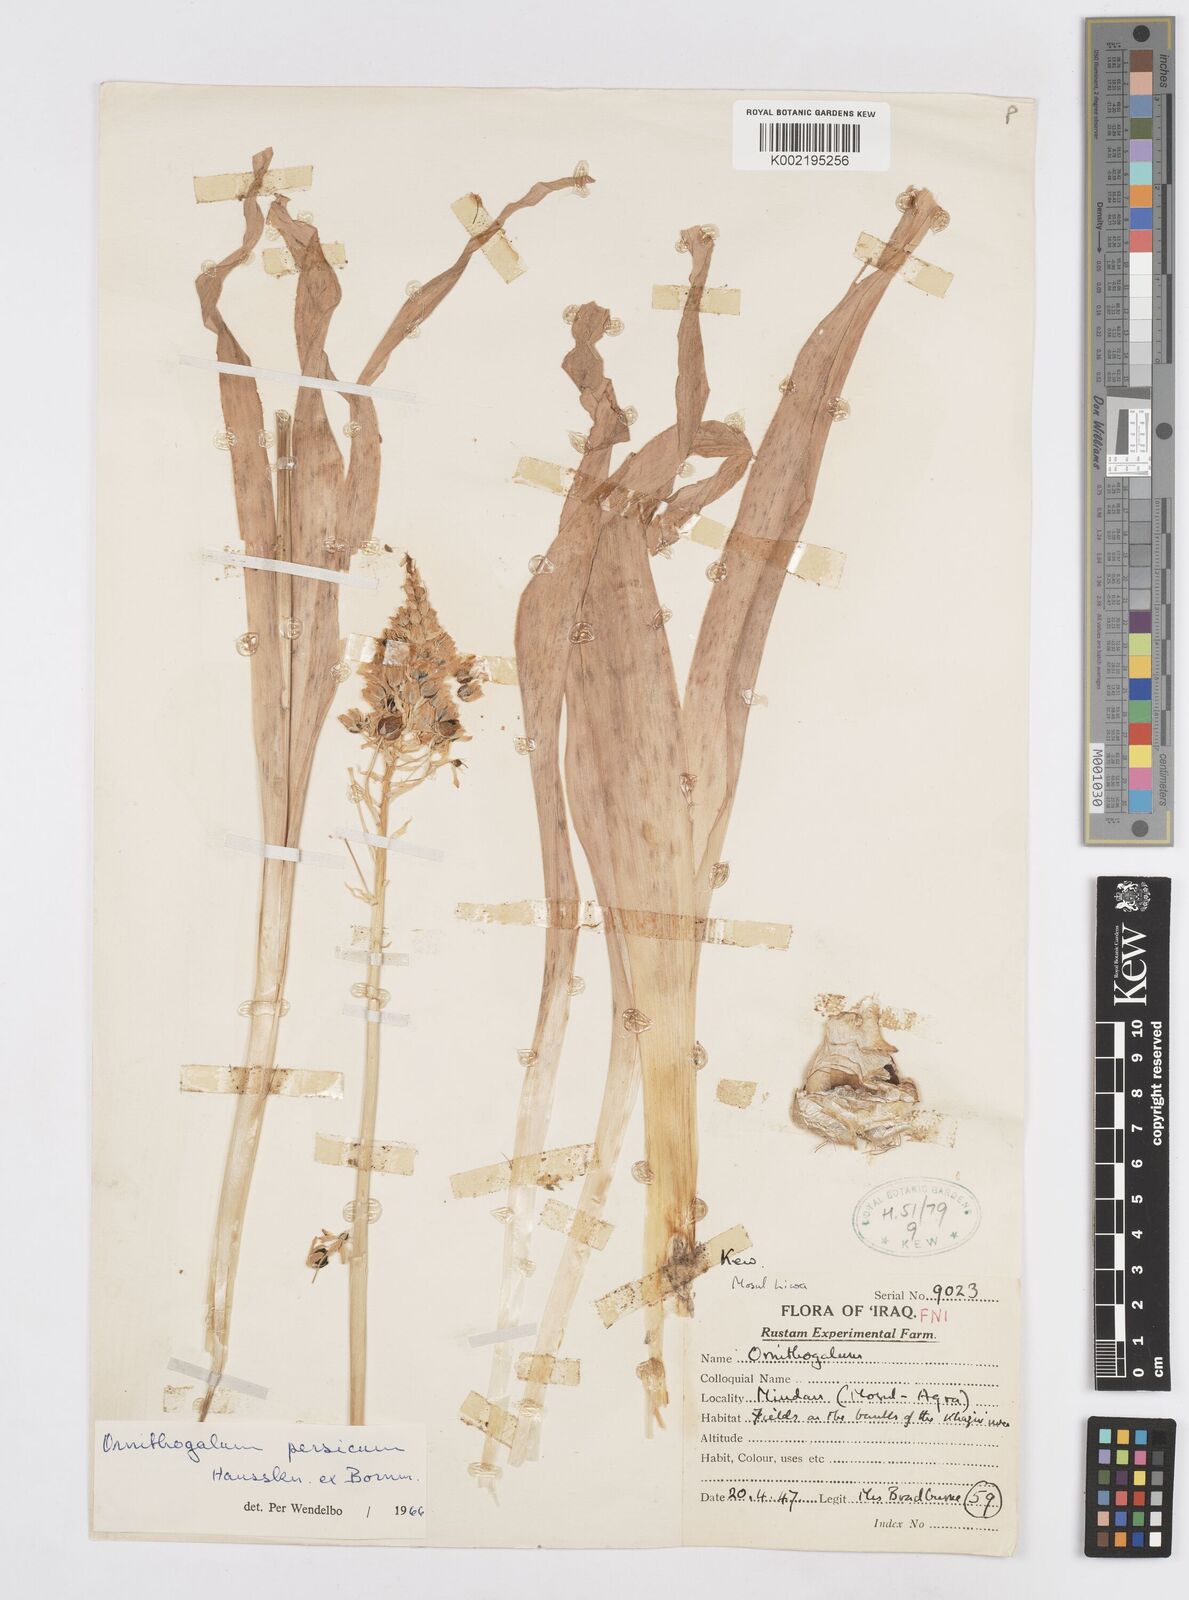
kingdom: Plantae
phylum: Tracheophyta
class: Liliopsida
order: Asparagales
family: Asparagaceae
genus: Ornithogalum
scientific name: Ornithogalum persicum
